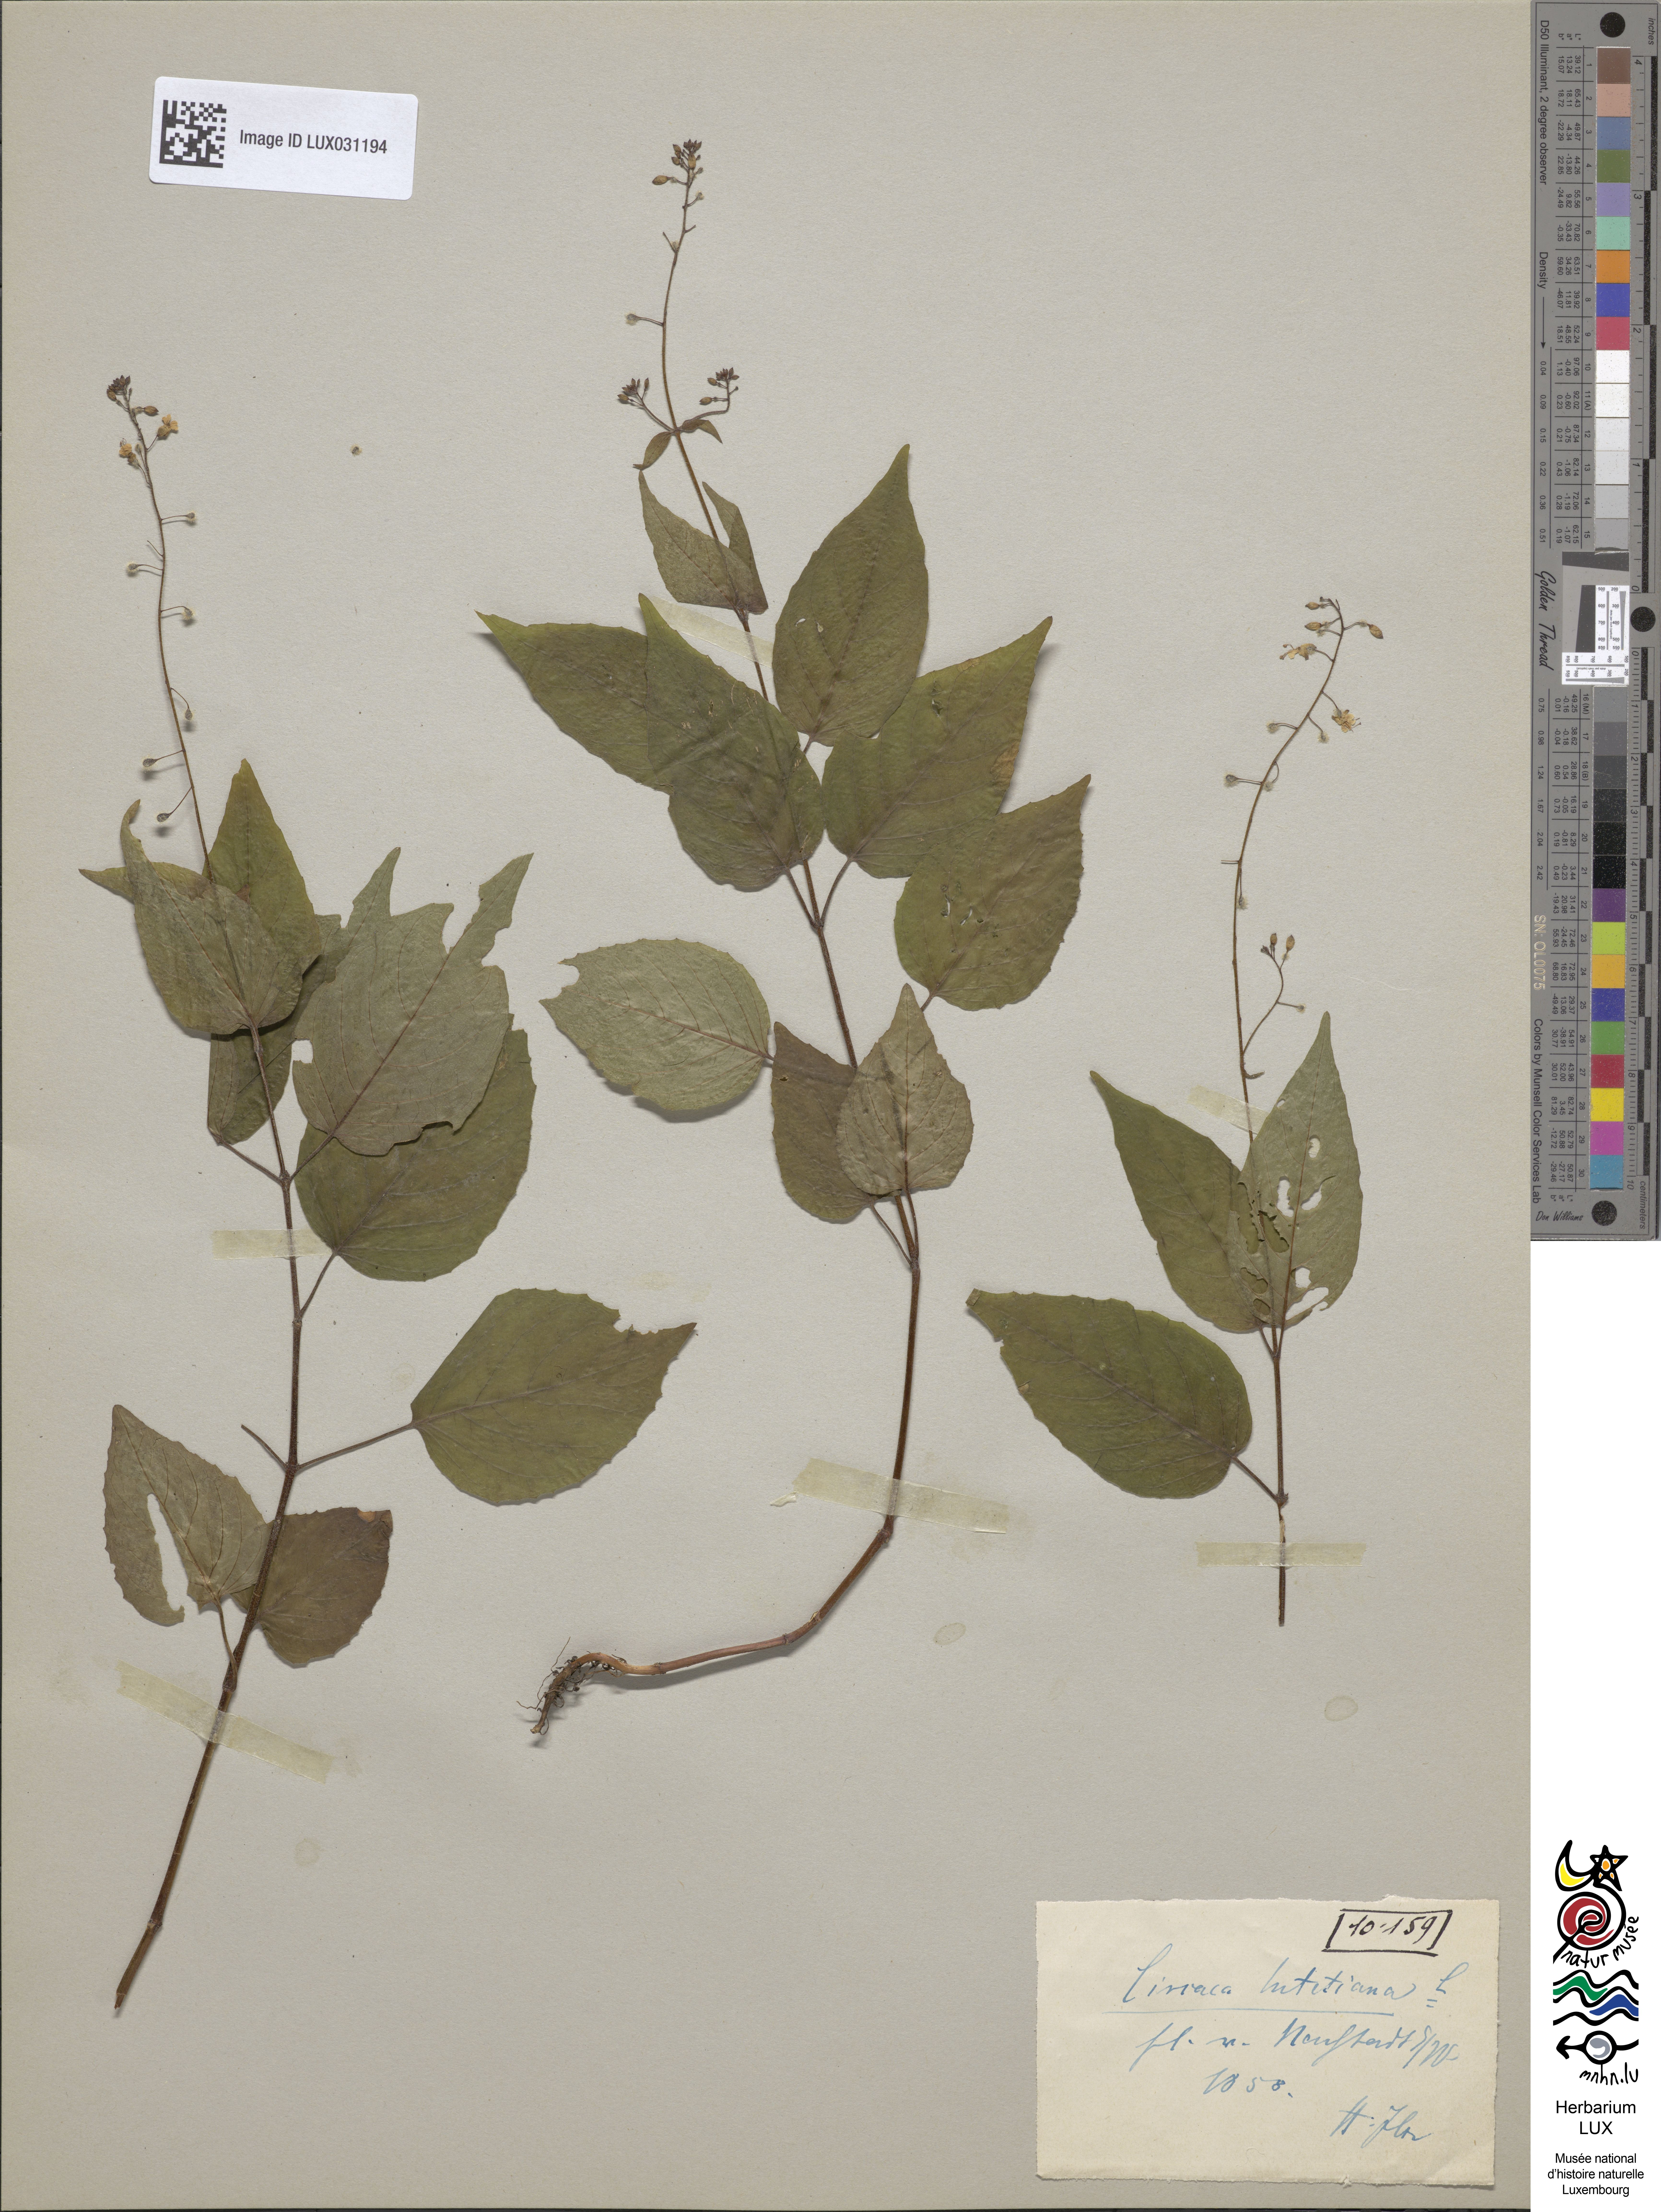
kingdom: Plantae
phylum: Tracheophyta
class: Magnoliopsida
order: Myrtales
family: Onagraceae
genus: Circaea
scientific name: Circaea lutetiana
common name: Enchanter's-nightshade
